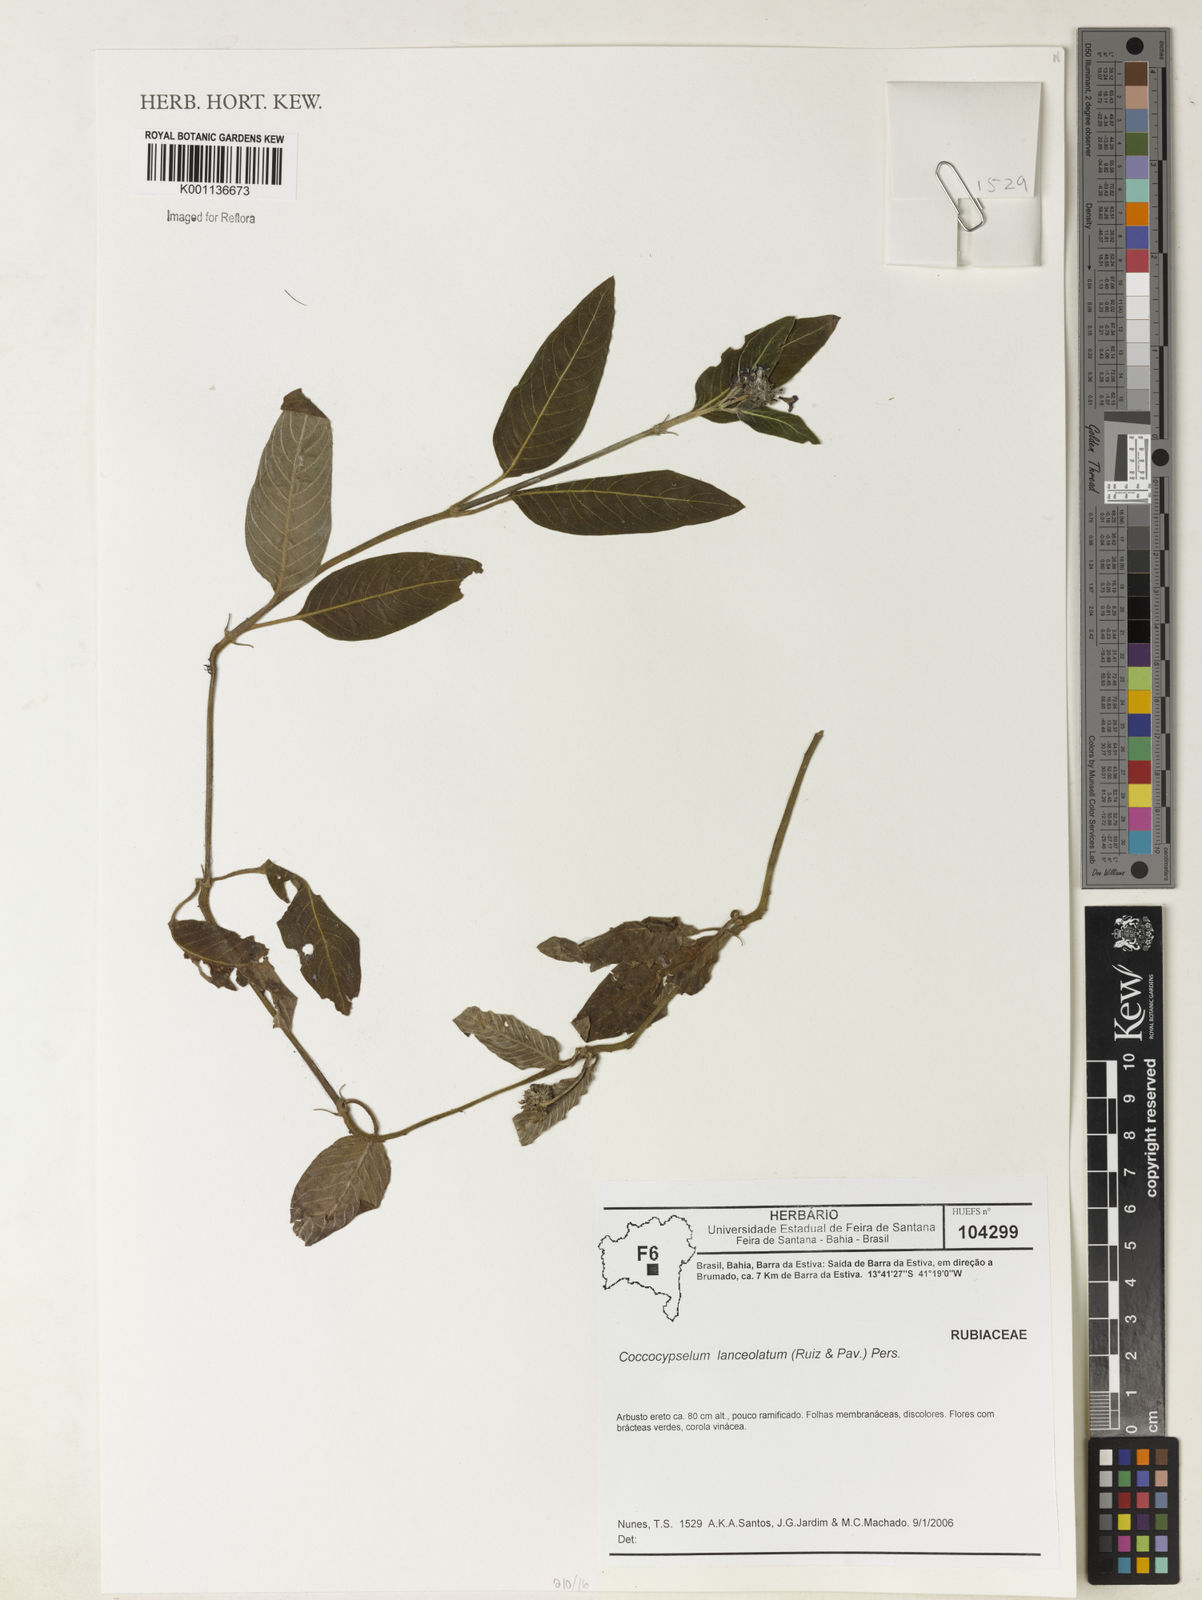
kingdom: Plantae
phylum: Tracheophyta
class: Magnoliopsida
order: Gentianales
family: Rubiaceae
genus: Coccocypselum
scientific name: Coccocypselum lanceolatum
